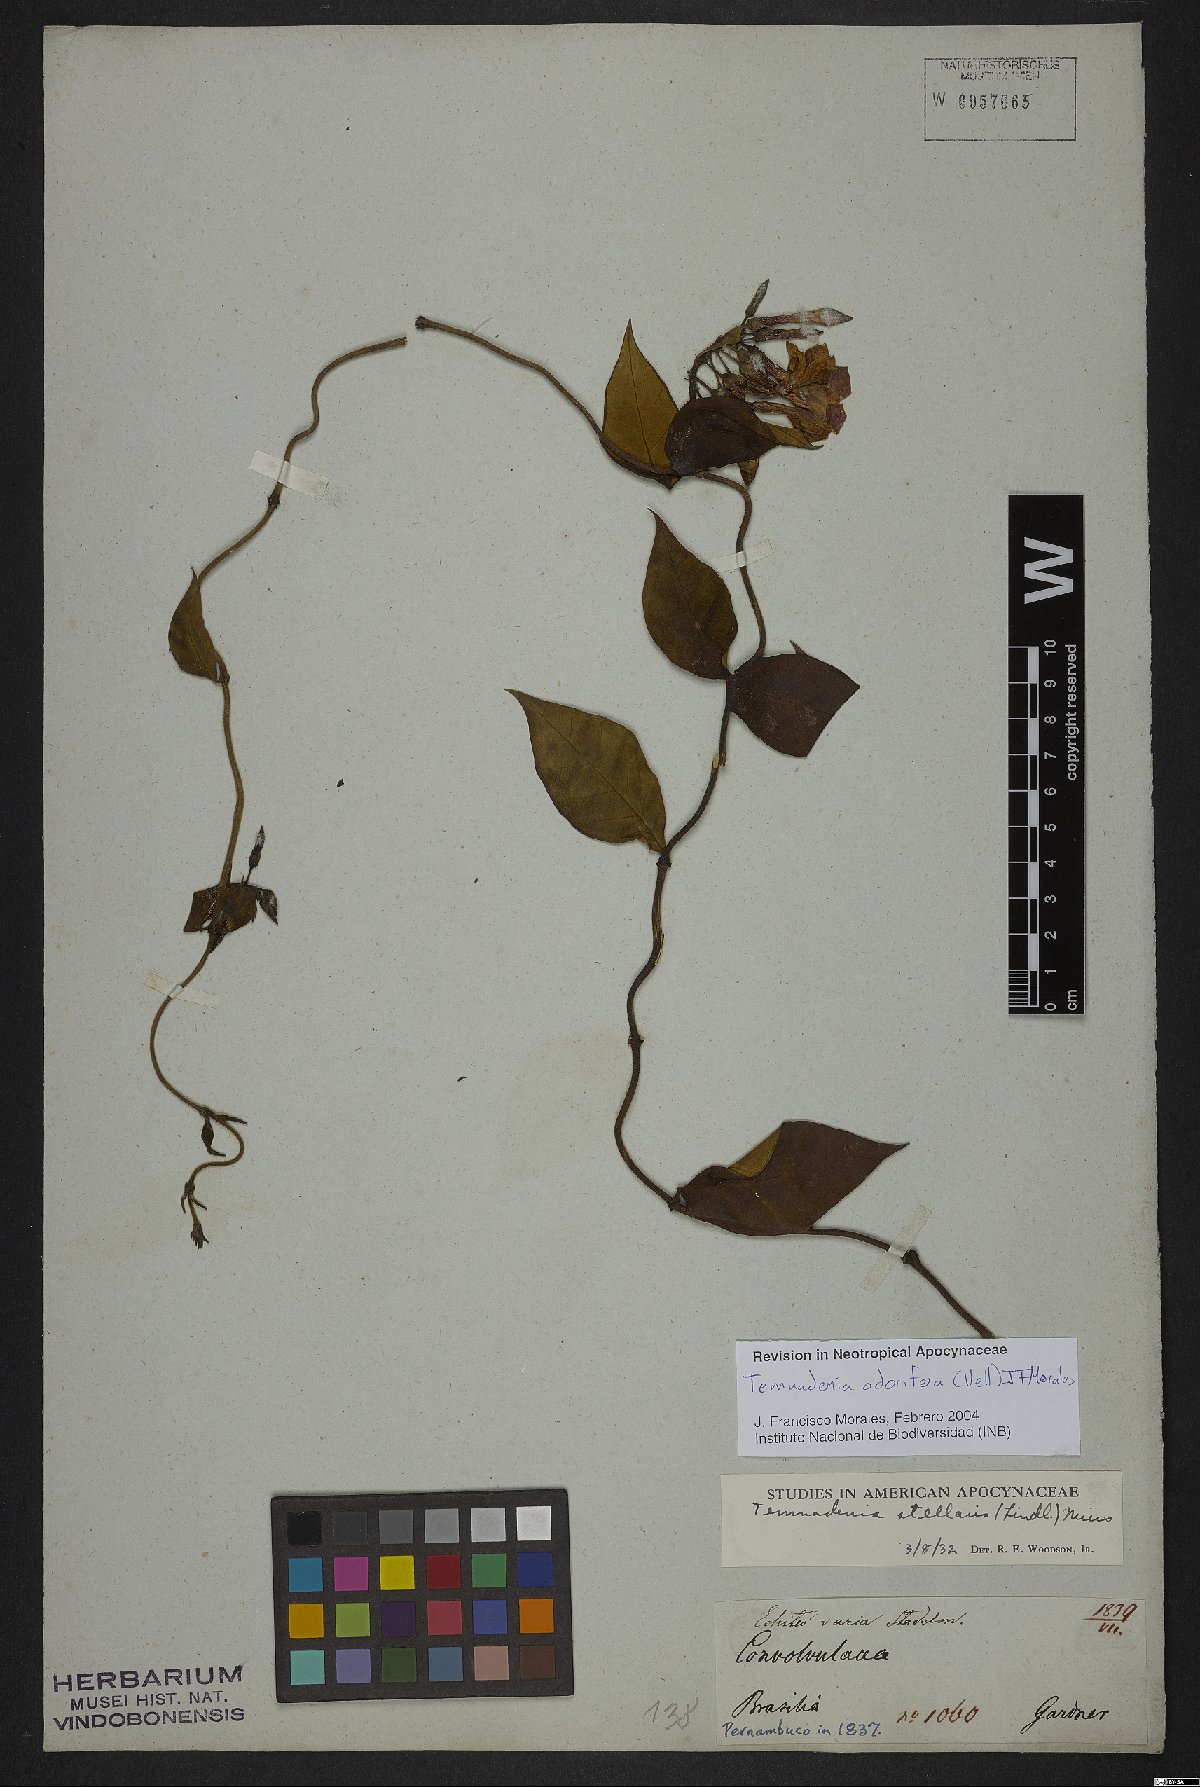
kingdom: Plantae
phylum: Tracheophyta
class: Magnoliopsida
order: Gentianales
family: Apocynaceae
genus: Temnadenia
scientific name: Temnadenia odorifera
